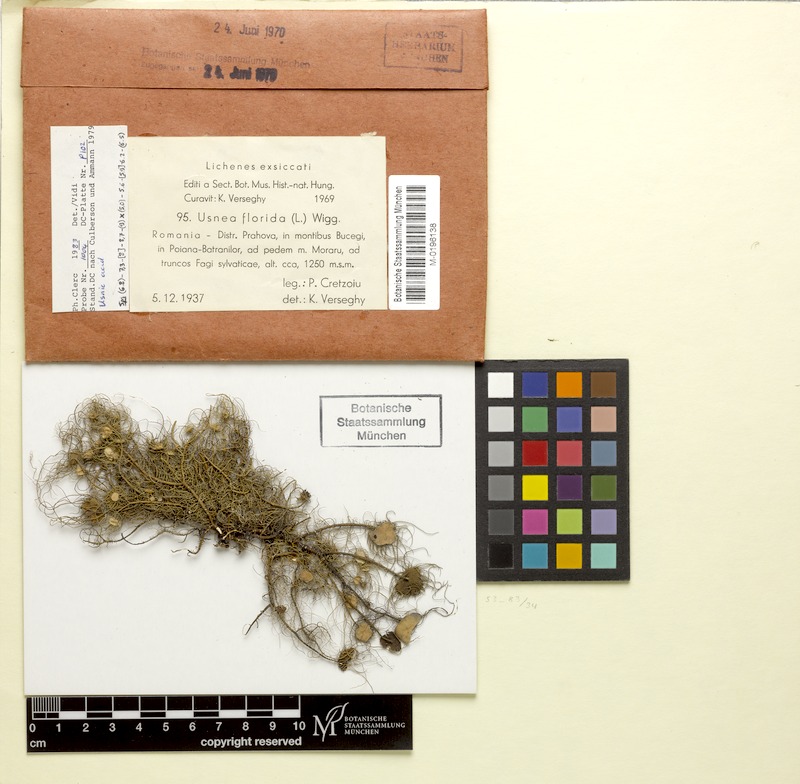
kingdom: Fungi
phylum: Ascomycota
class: Lecanoromycetes
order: Lecanorales
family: Parmeliaceae
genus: Usnea
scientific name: Usnea florida
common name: Witches' whiskers lichen
